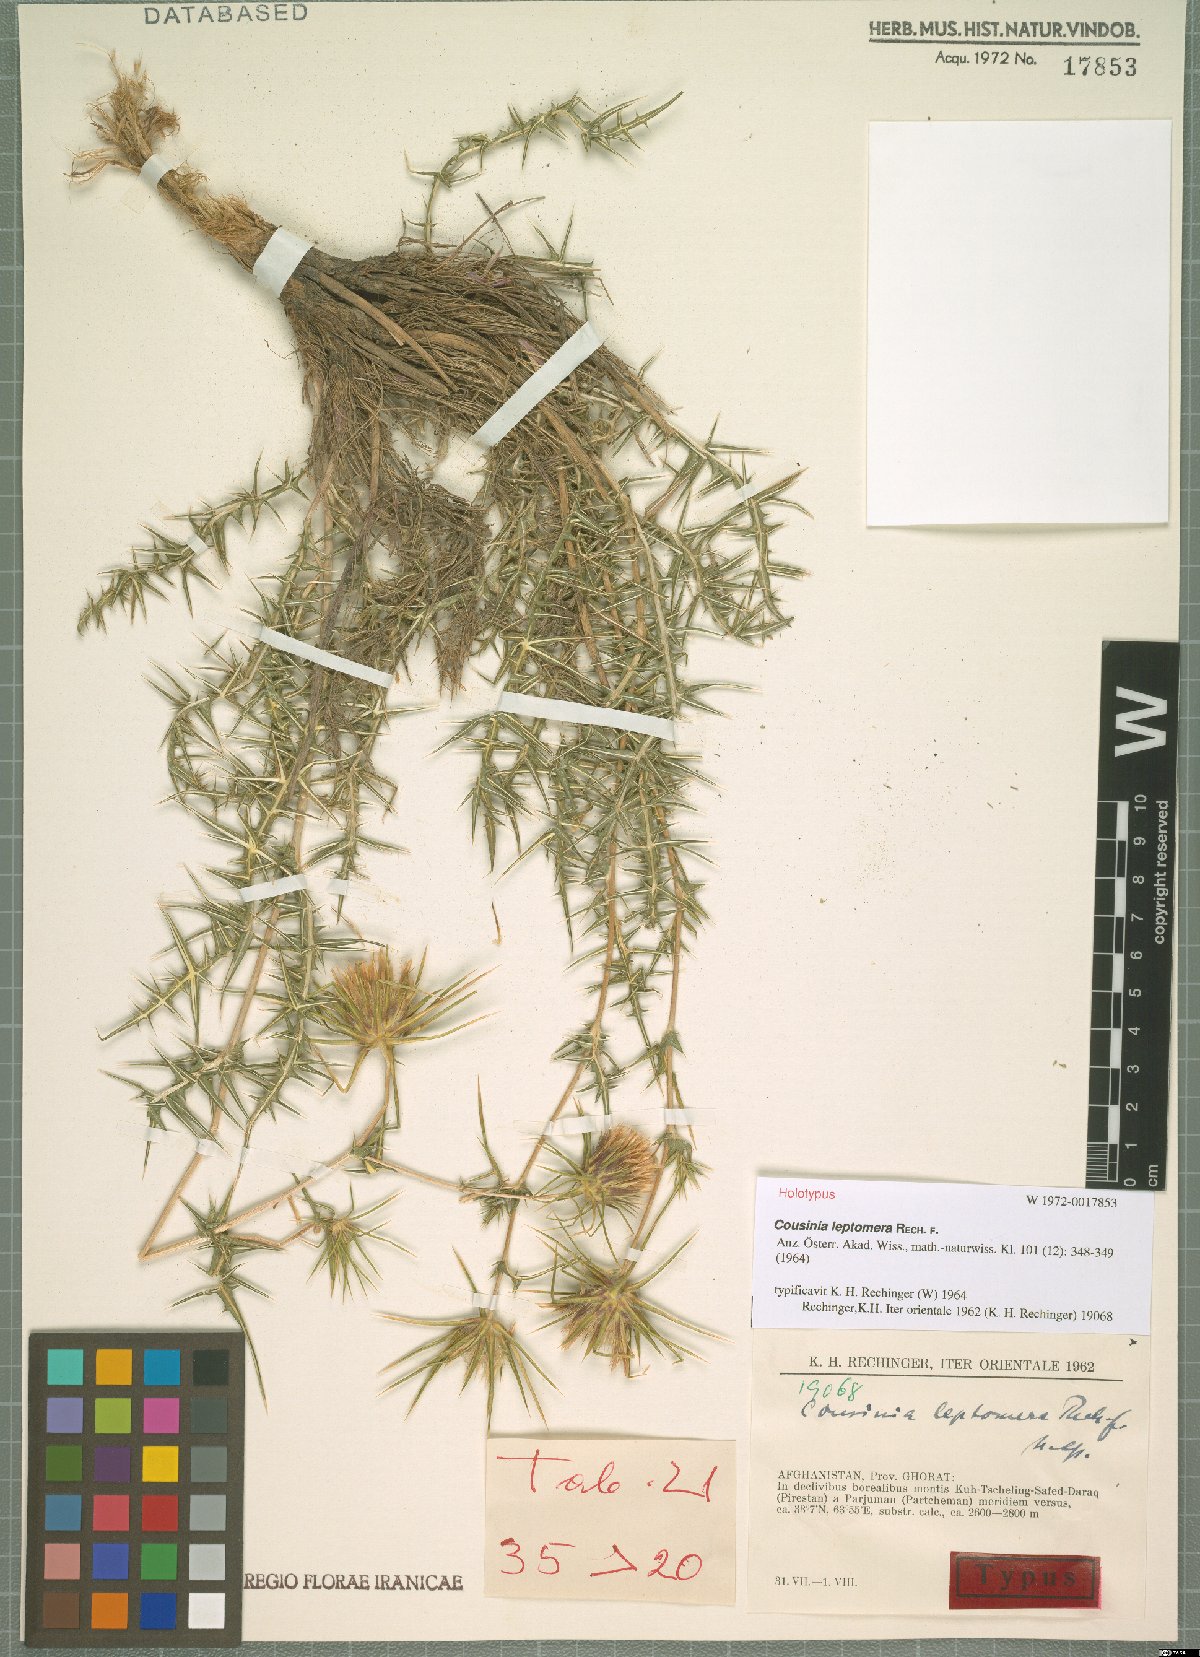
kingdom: Plantae
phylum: Tracheophyta
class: Magnoliopsida
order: Asterales
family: Asteraceae
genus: Cousinia
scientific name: Cousinia leptomera
